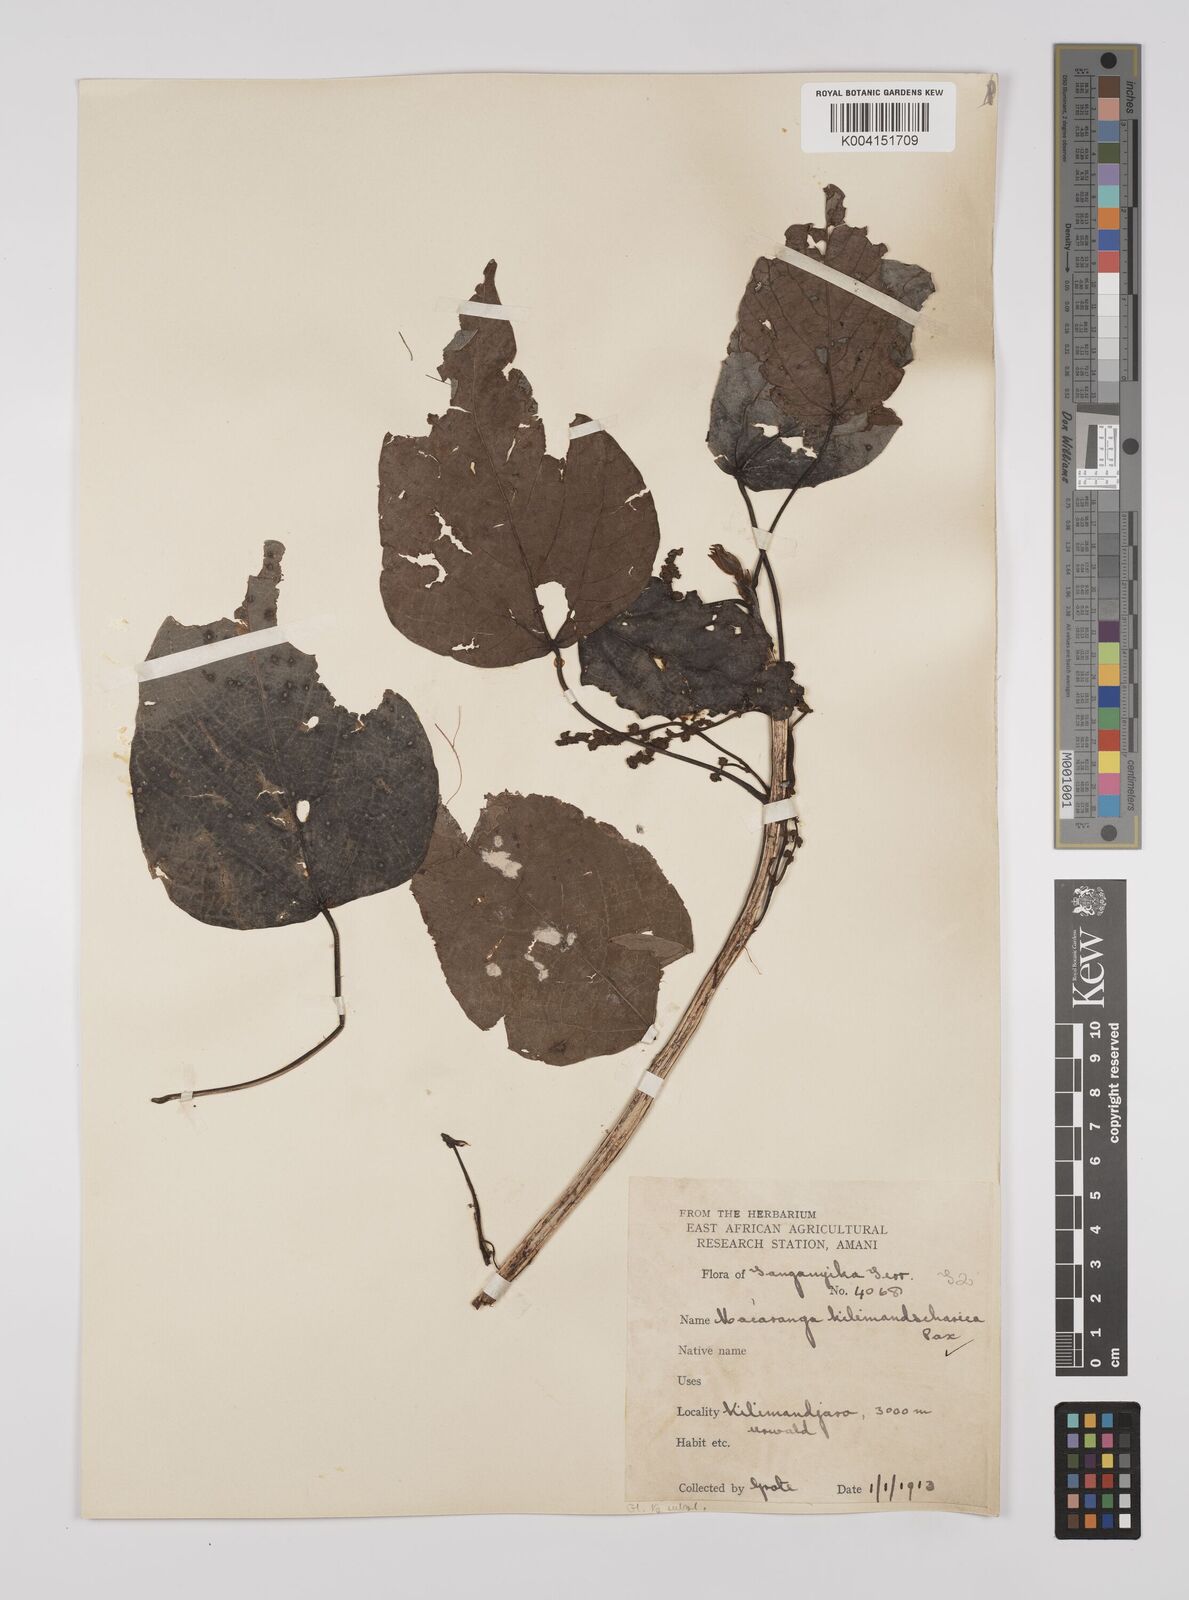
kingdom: Plantae
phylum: Tracheophyta
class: Magnoliopsida
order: Malpighiales
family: Euphorbiaceae
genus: Macaranga
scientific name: Macaranga kilimandscharica
